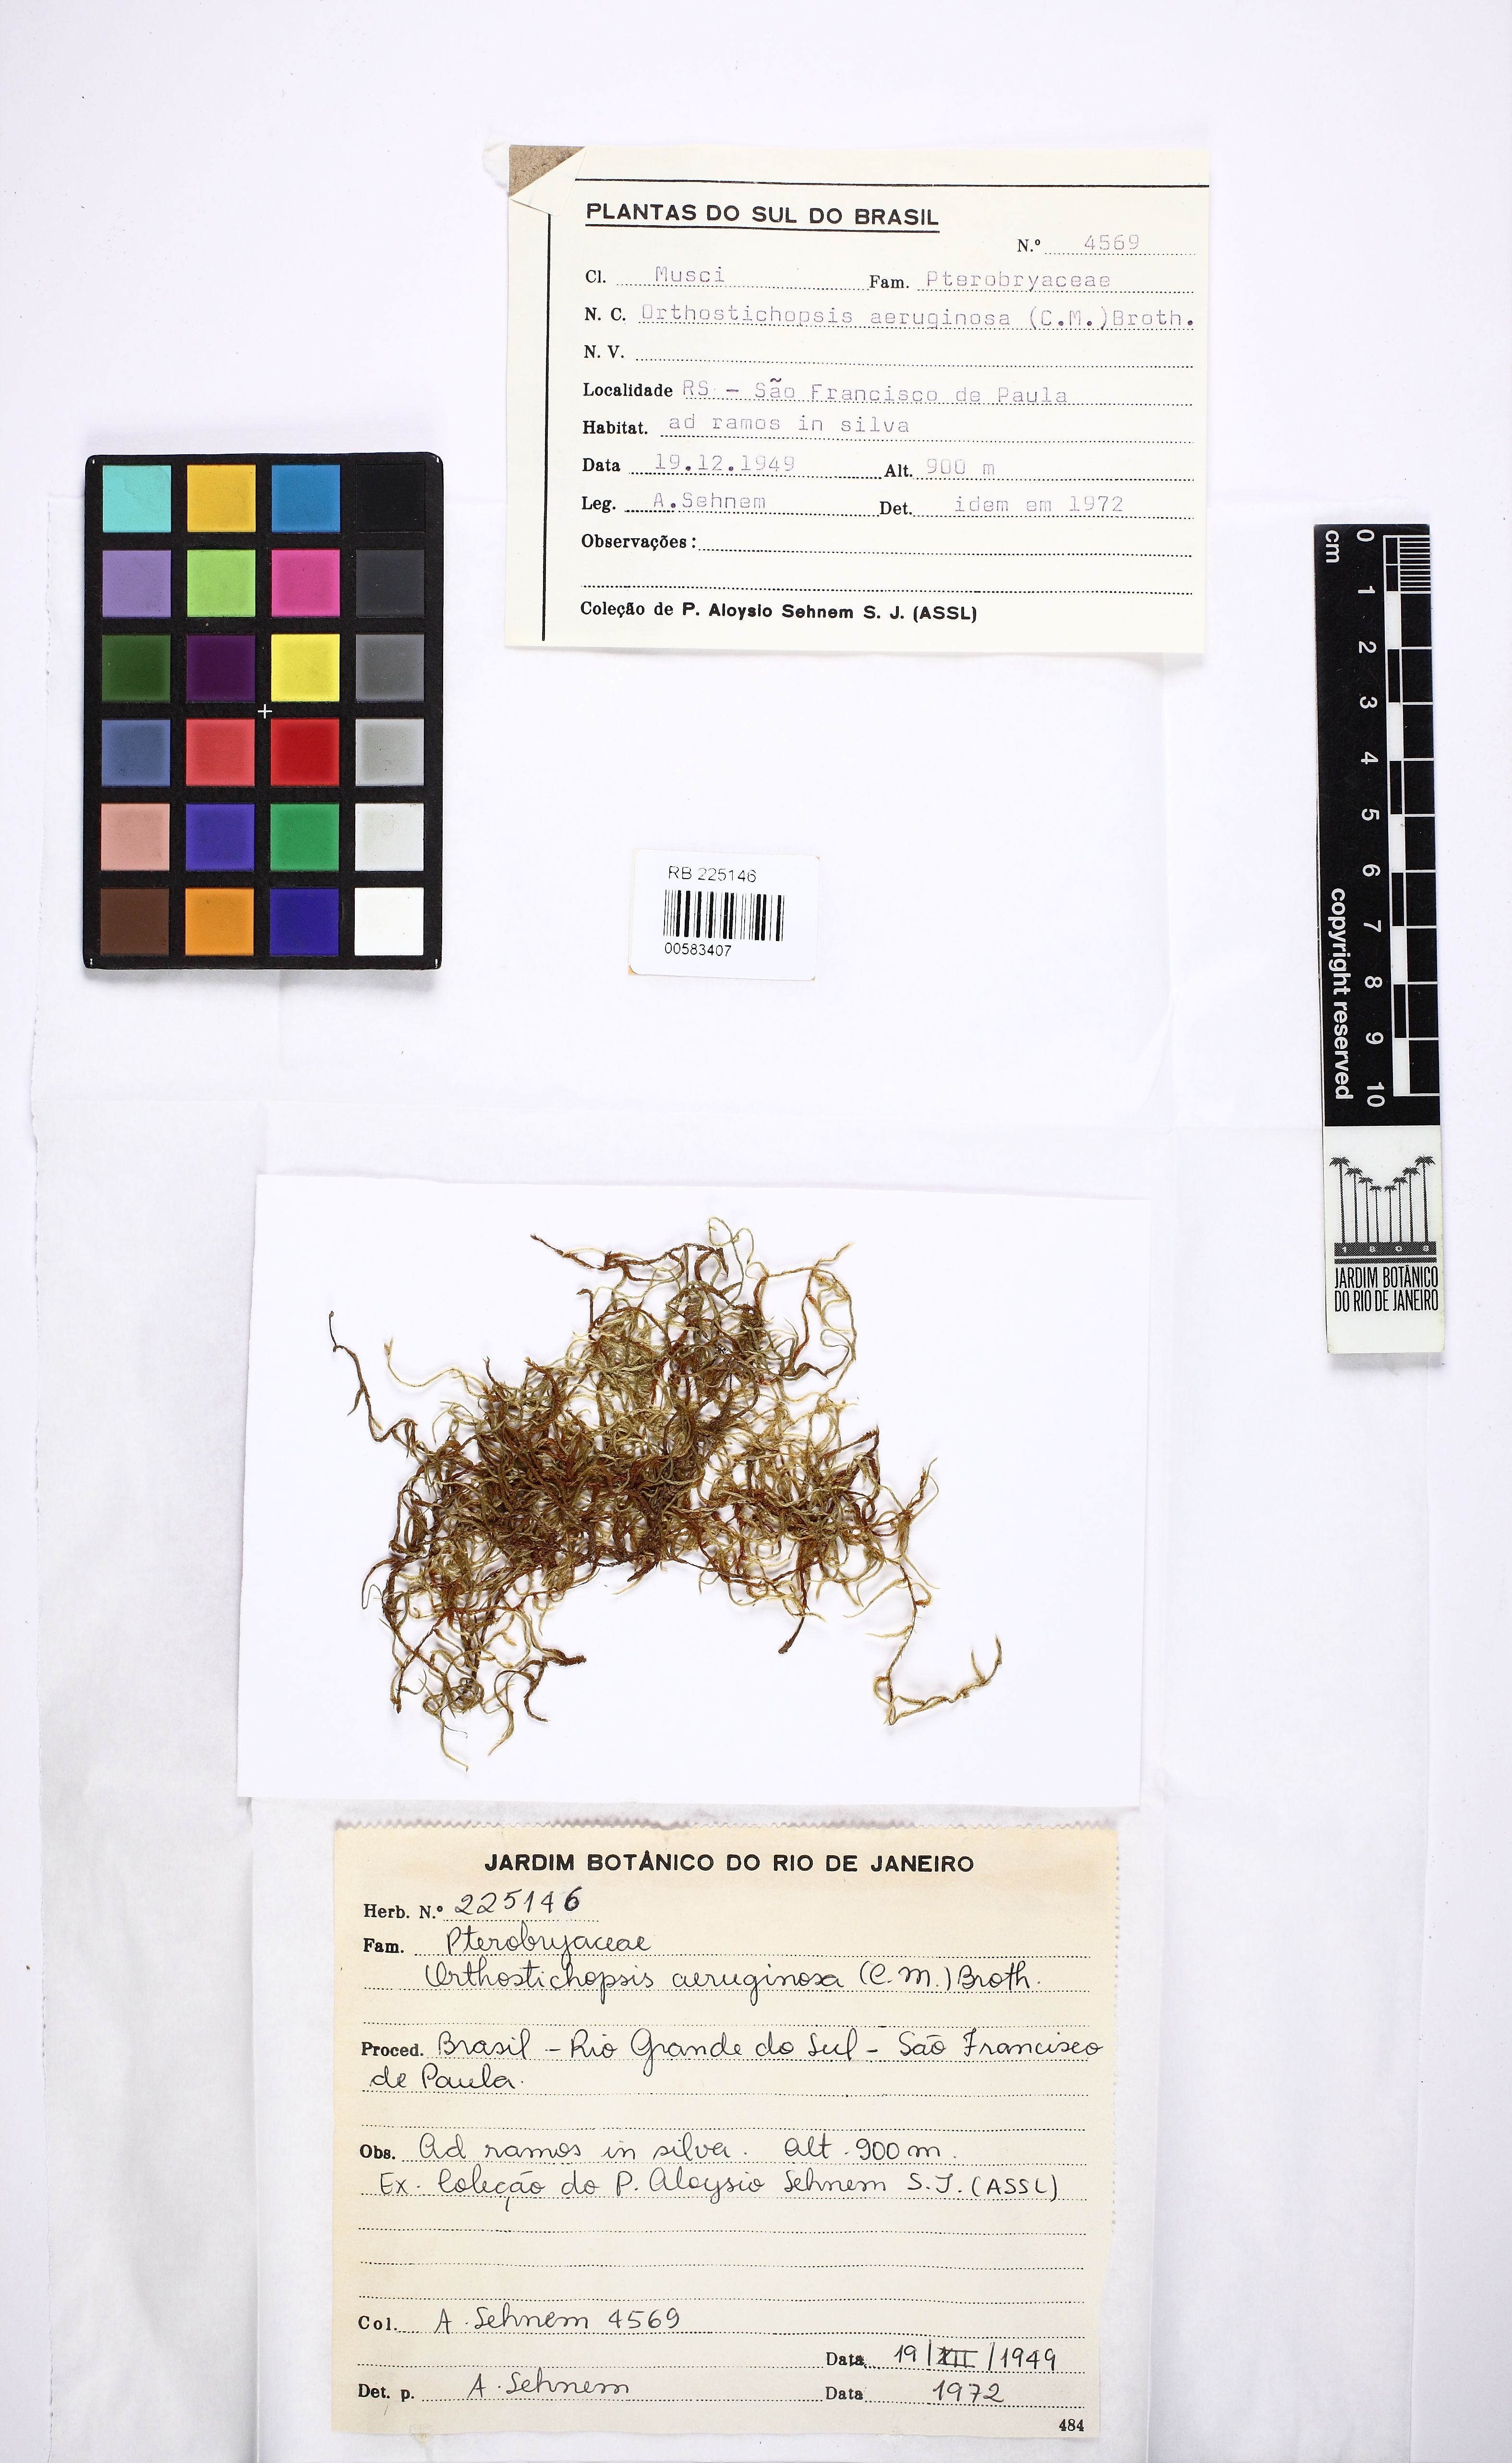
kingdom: Plantae
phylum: Bryophyta
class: Bryopsida
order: Hypnales
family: Pterobryaceae
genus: Orthostichopsis
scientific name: Orthostichopsis tenuis
